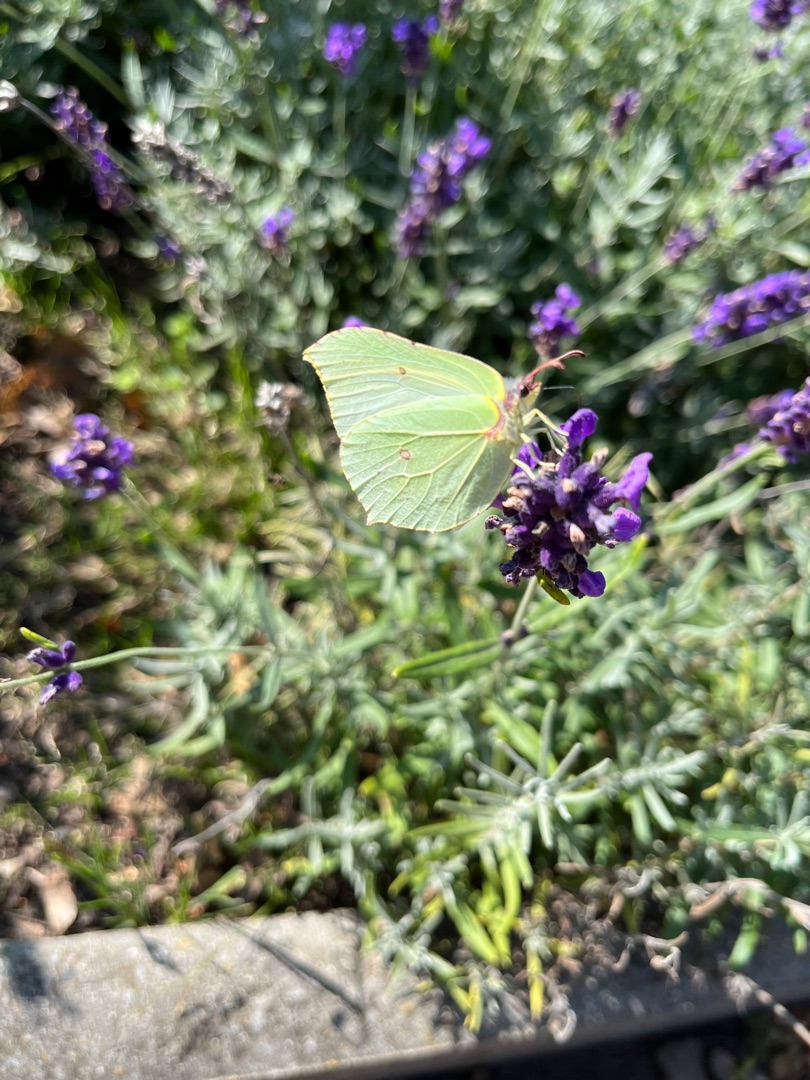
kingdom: Animalia
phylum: Arthropoda
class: Insecta
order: Lepidoptera
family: Pieridae
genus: Gonepteryx
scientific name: Gonepteryx rhamni
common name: Citronsommerfugl
